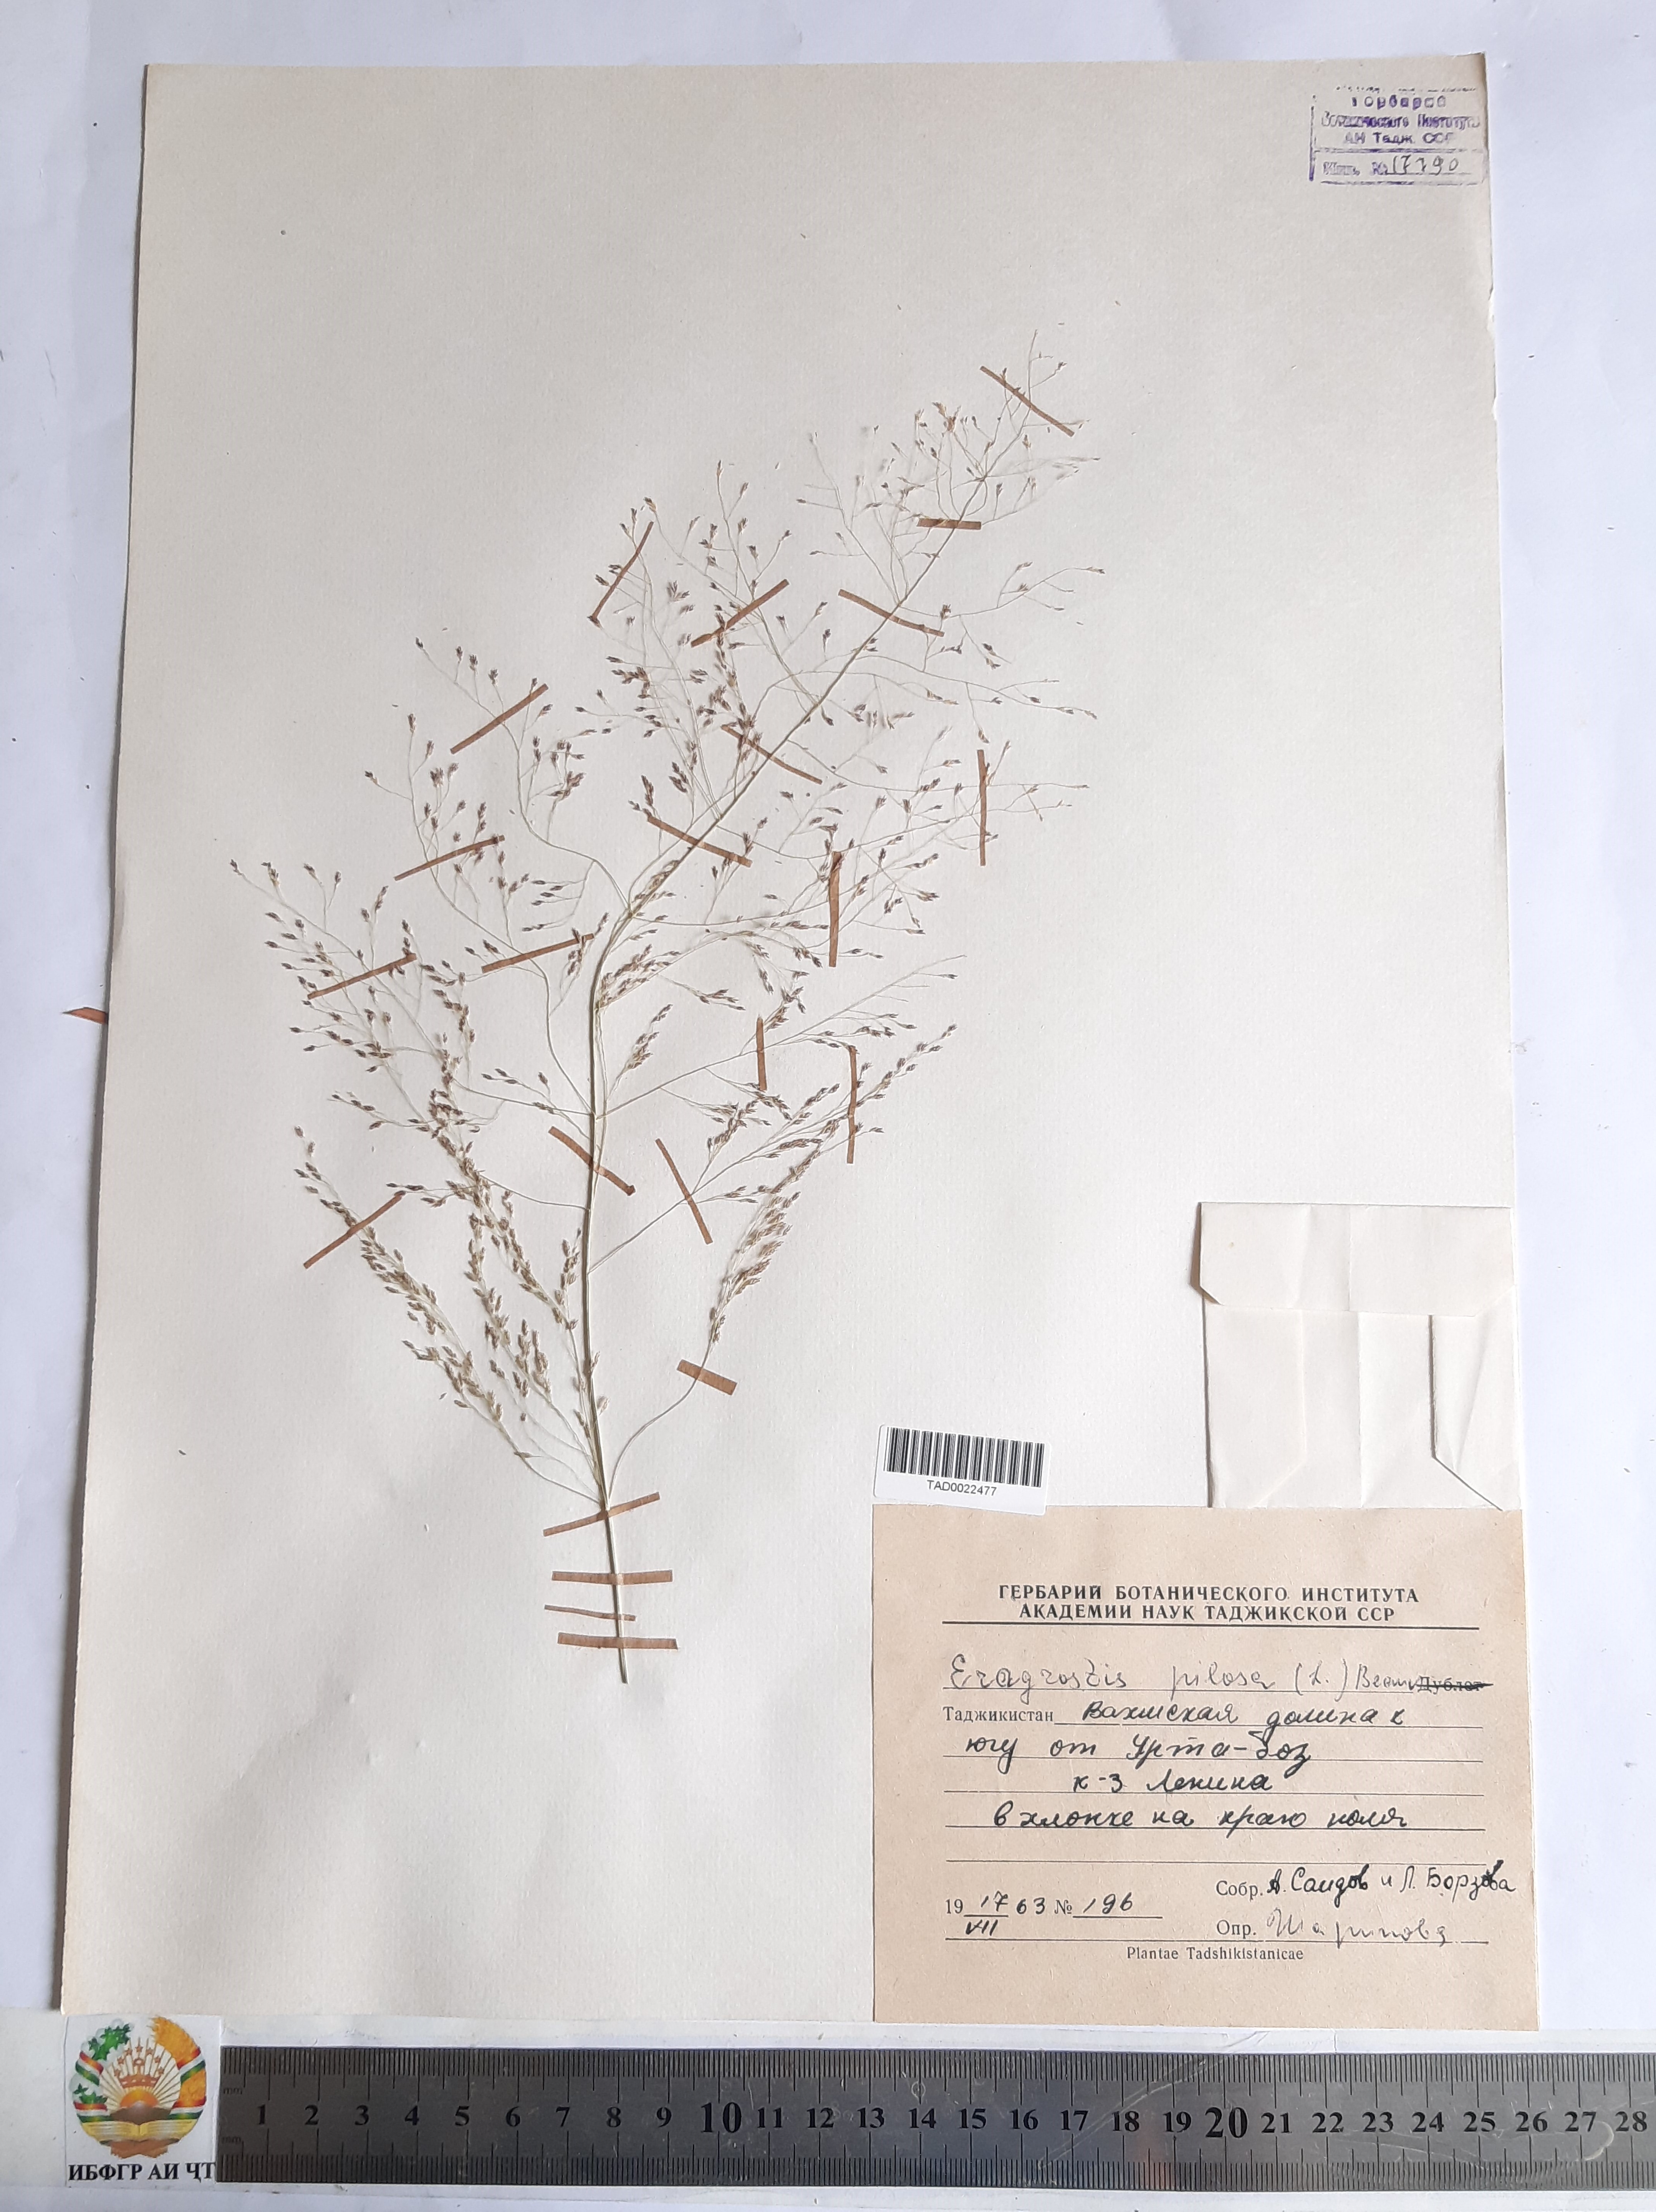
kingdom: Plantae
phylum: Tracheophyta
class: Liliopsida
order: Poales
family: Poaceae
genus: Eragrostis
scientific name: Eragrostis pilosa
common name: Indian lovegrass
